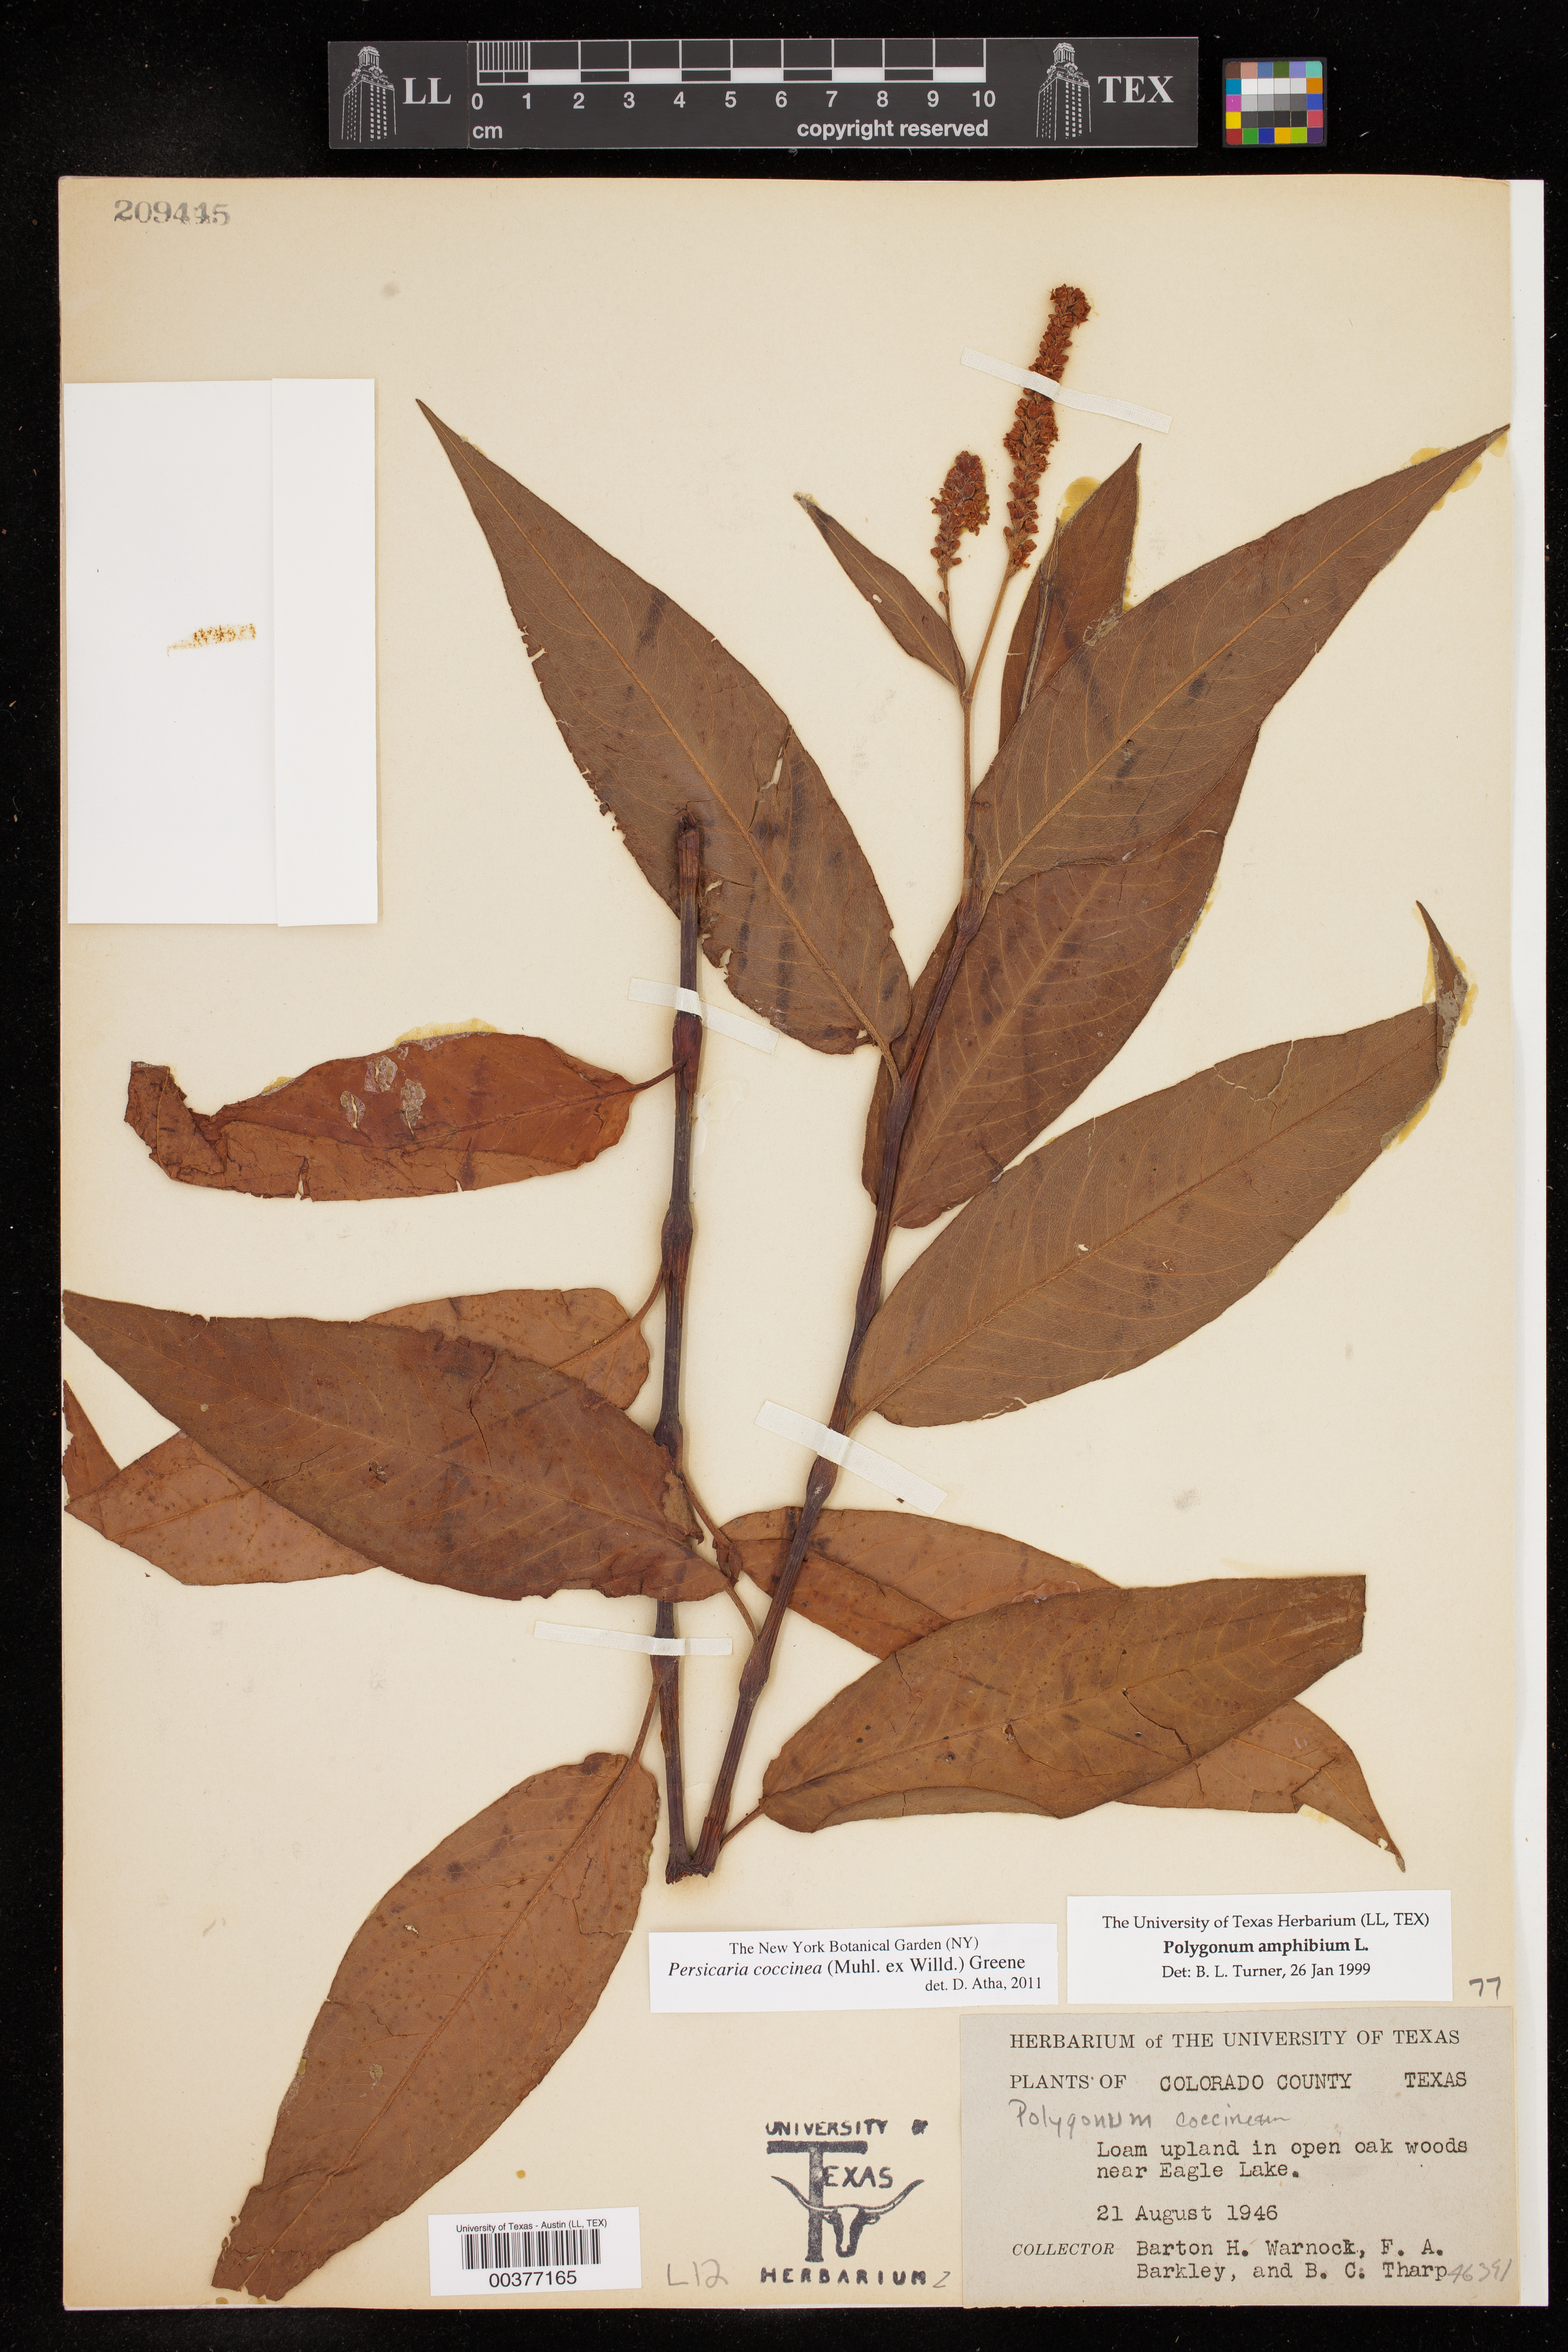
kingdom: Plantae
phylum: Tracheophyta
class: Magnoliopsida
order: Caryophyllales
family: Polygonaceae
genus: Persicaria
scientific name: Persicaria amphibia
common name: Amphibious bistort
